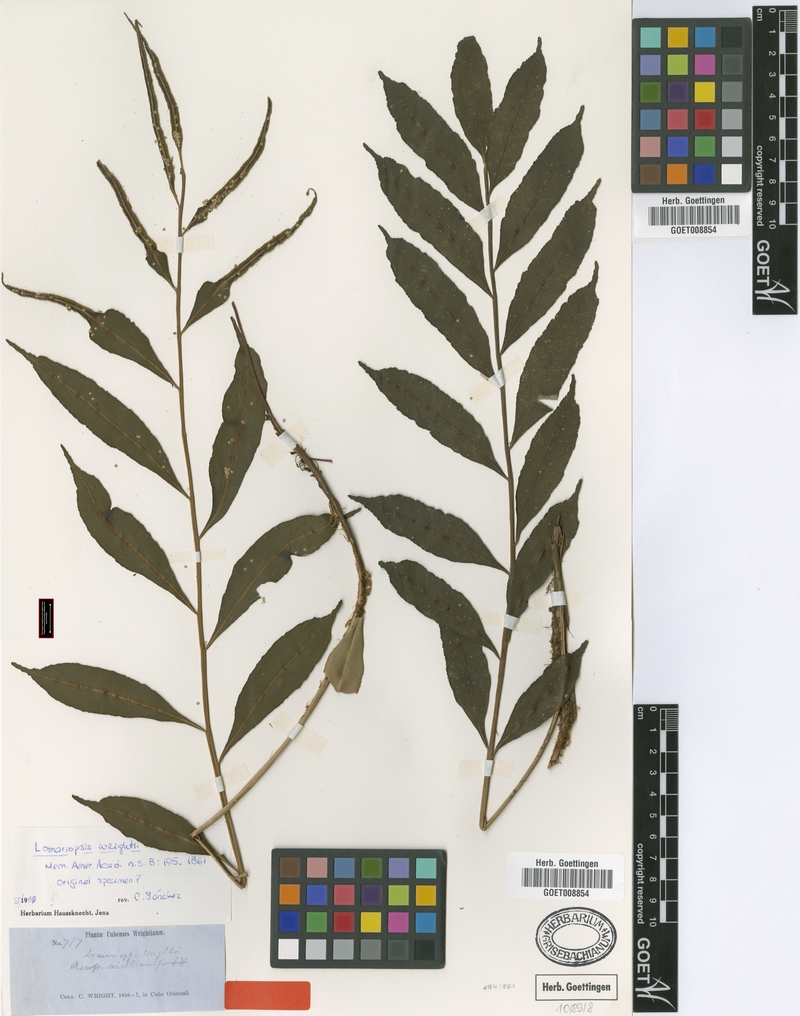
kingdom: Plantae
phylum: Tracheophyta
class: Polypodiopsida
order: Polypodiales
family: Lomariopsidaceae
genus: Lomariopsis
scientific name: Lomariopsis wrightii
